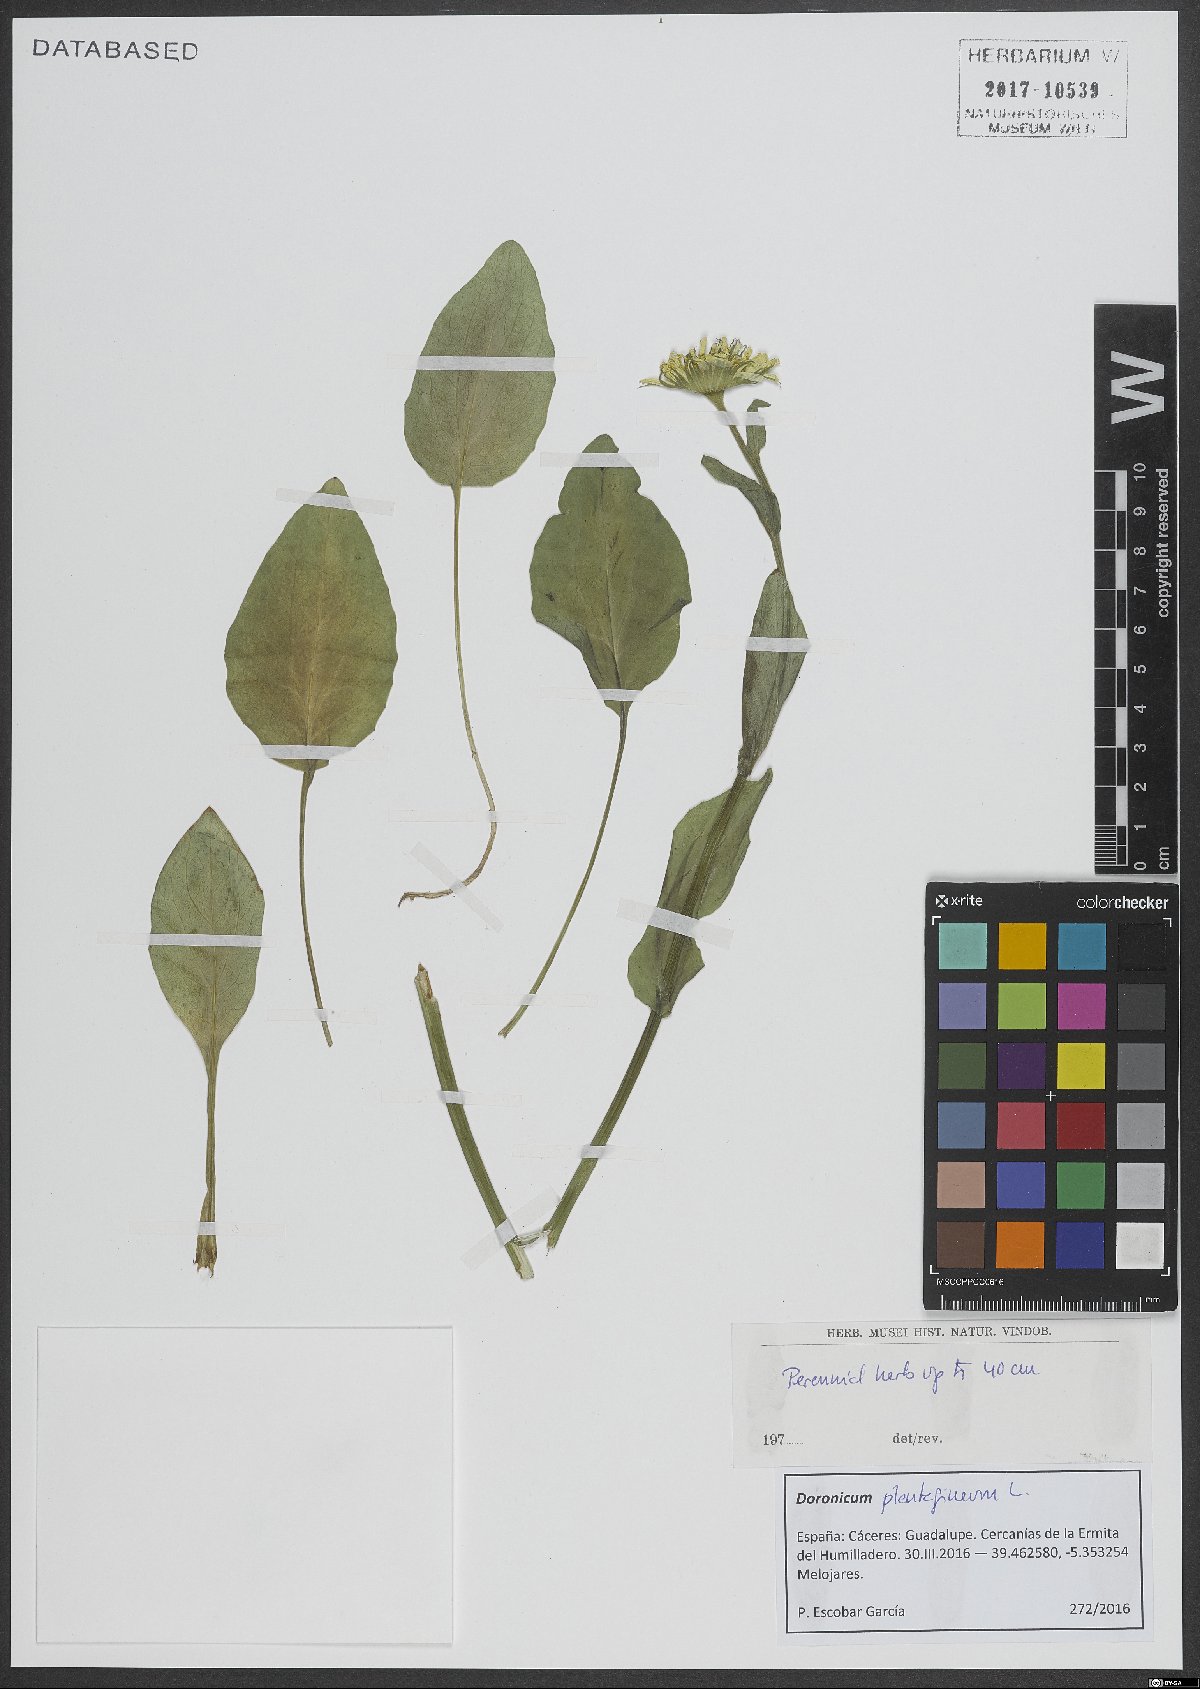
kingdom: Plantae
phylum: Tracheophyta
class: Magnoliopsida
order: Asterales
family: Asteraceae
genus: Doronicum
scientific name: Doronicum plantagineum
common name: Plantain-leaved leopard's-bane
